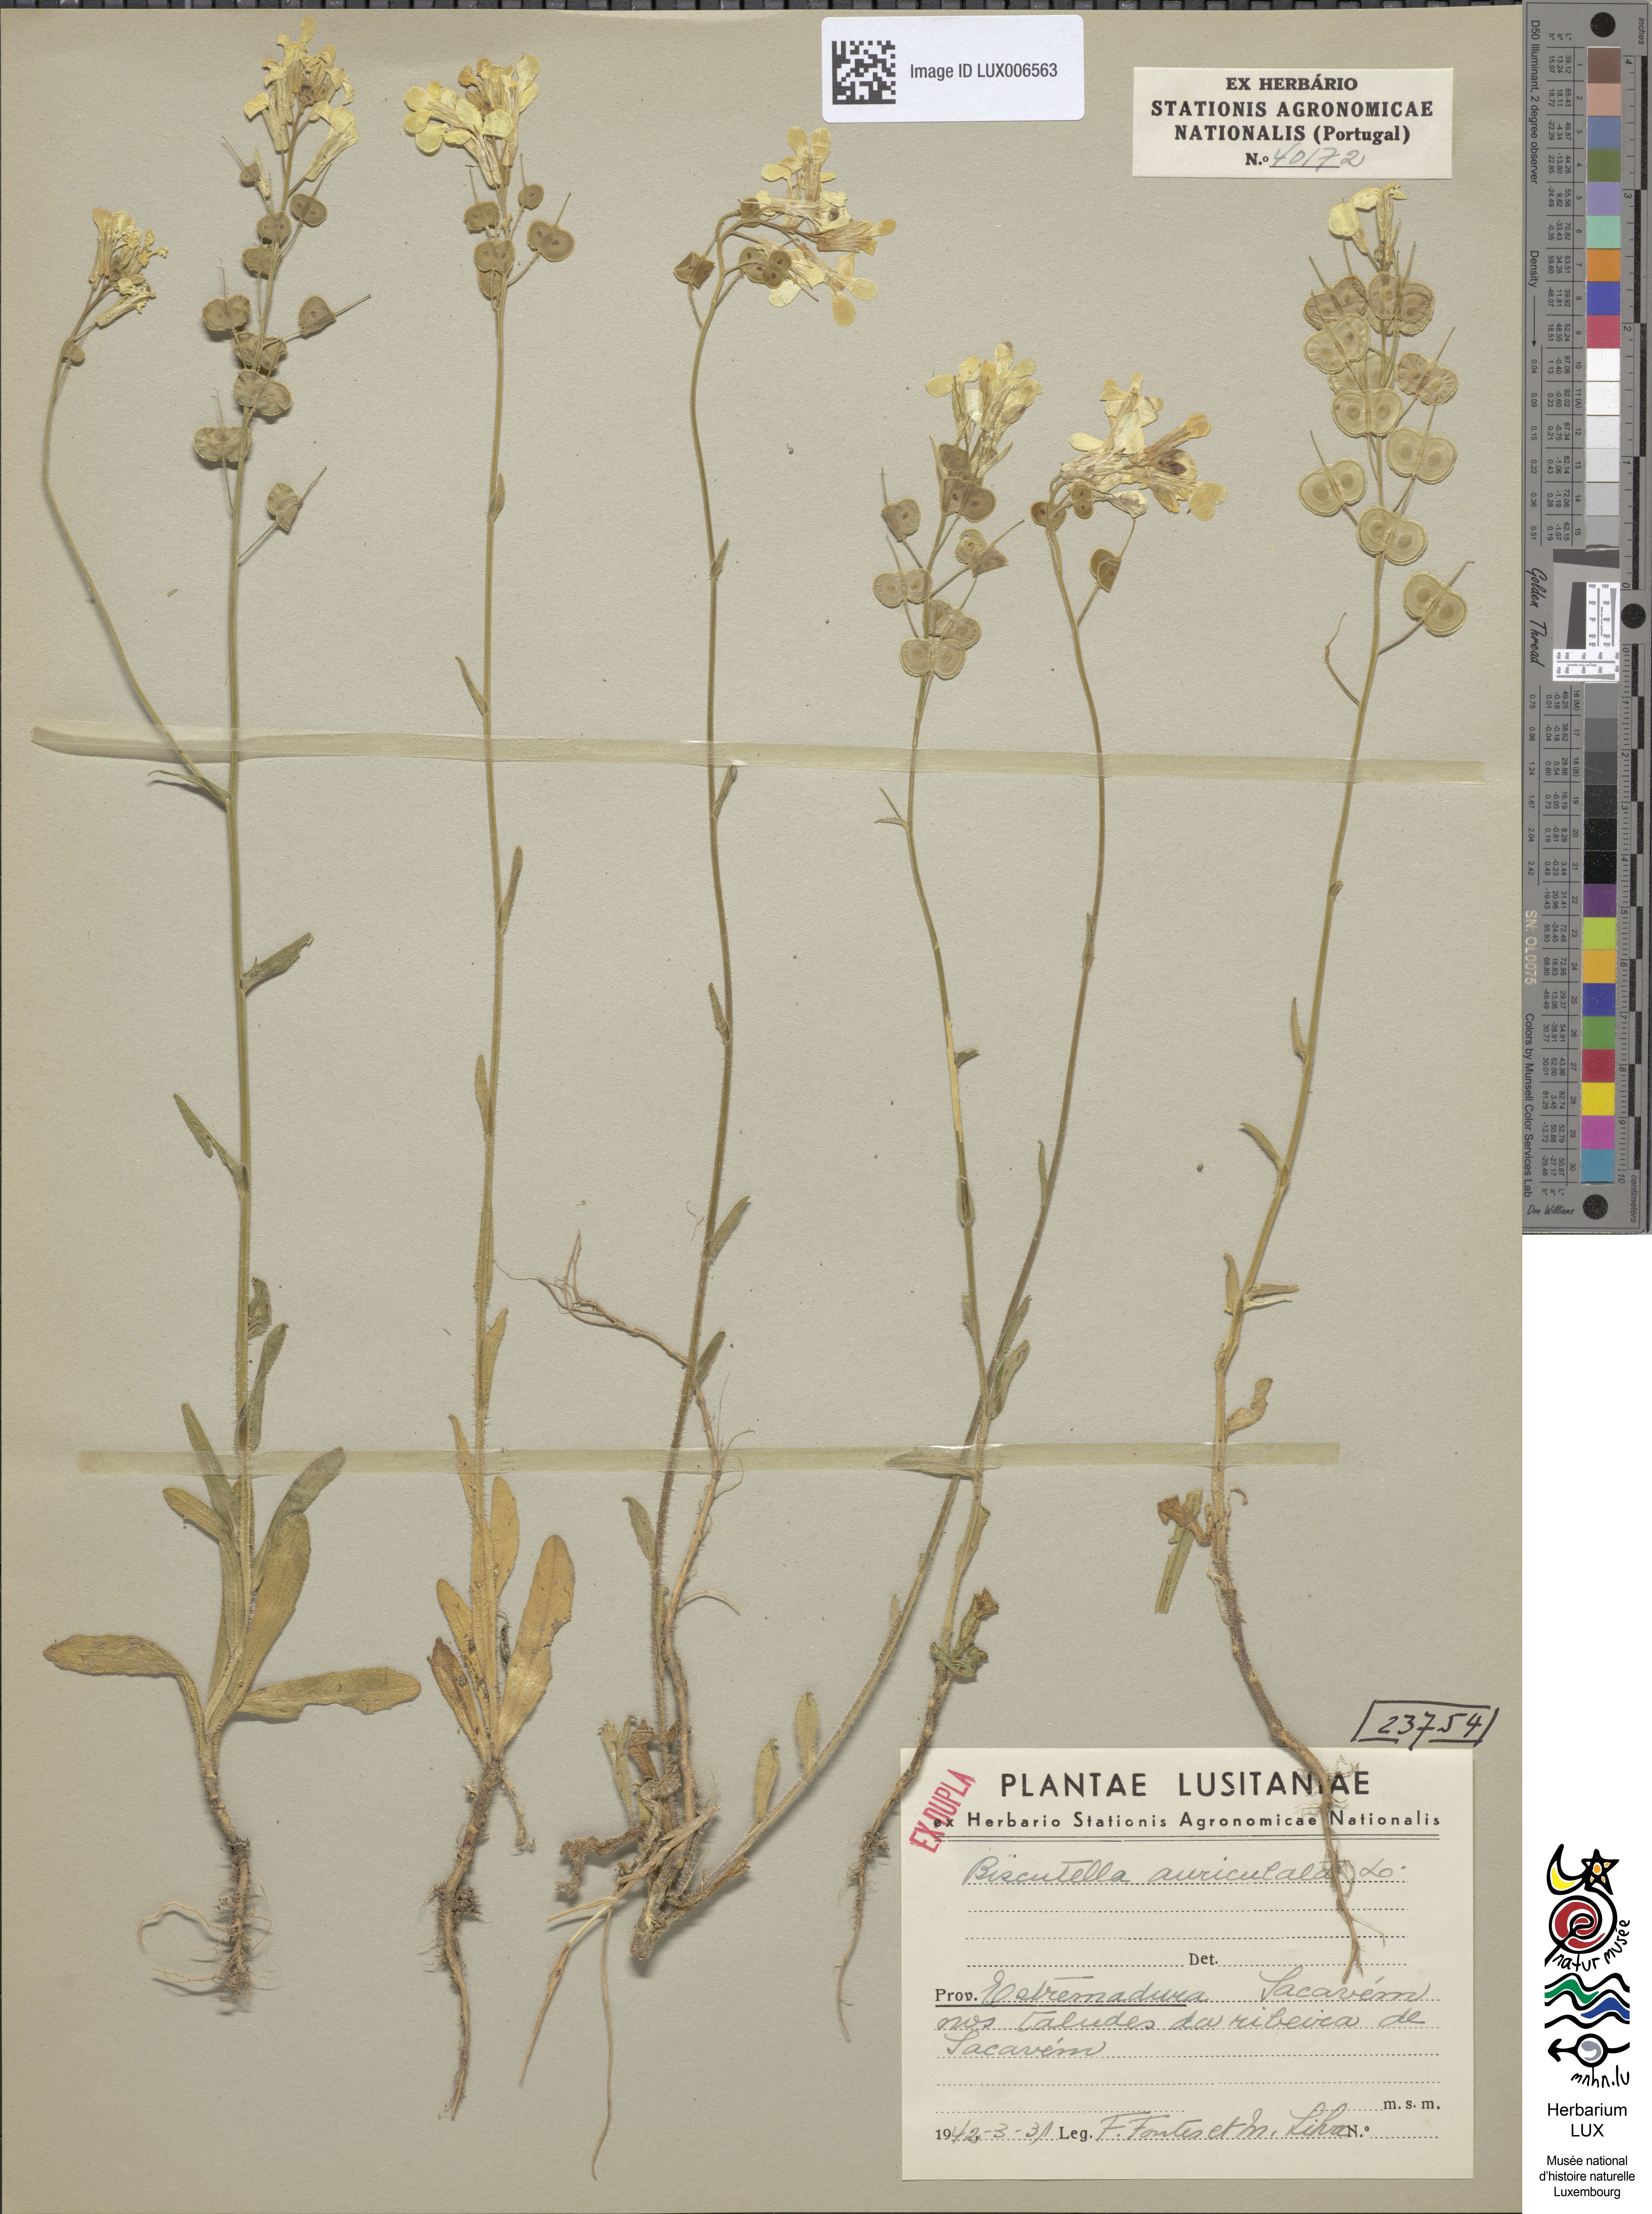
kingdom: Plantae
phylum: Tracheophyta
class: Magnoliopsida
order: Brassicales
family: Brassicaceae
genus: Biscutella
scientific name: Biscutella auriculata
